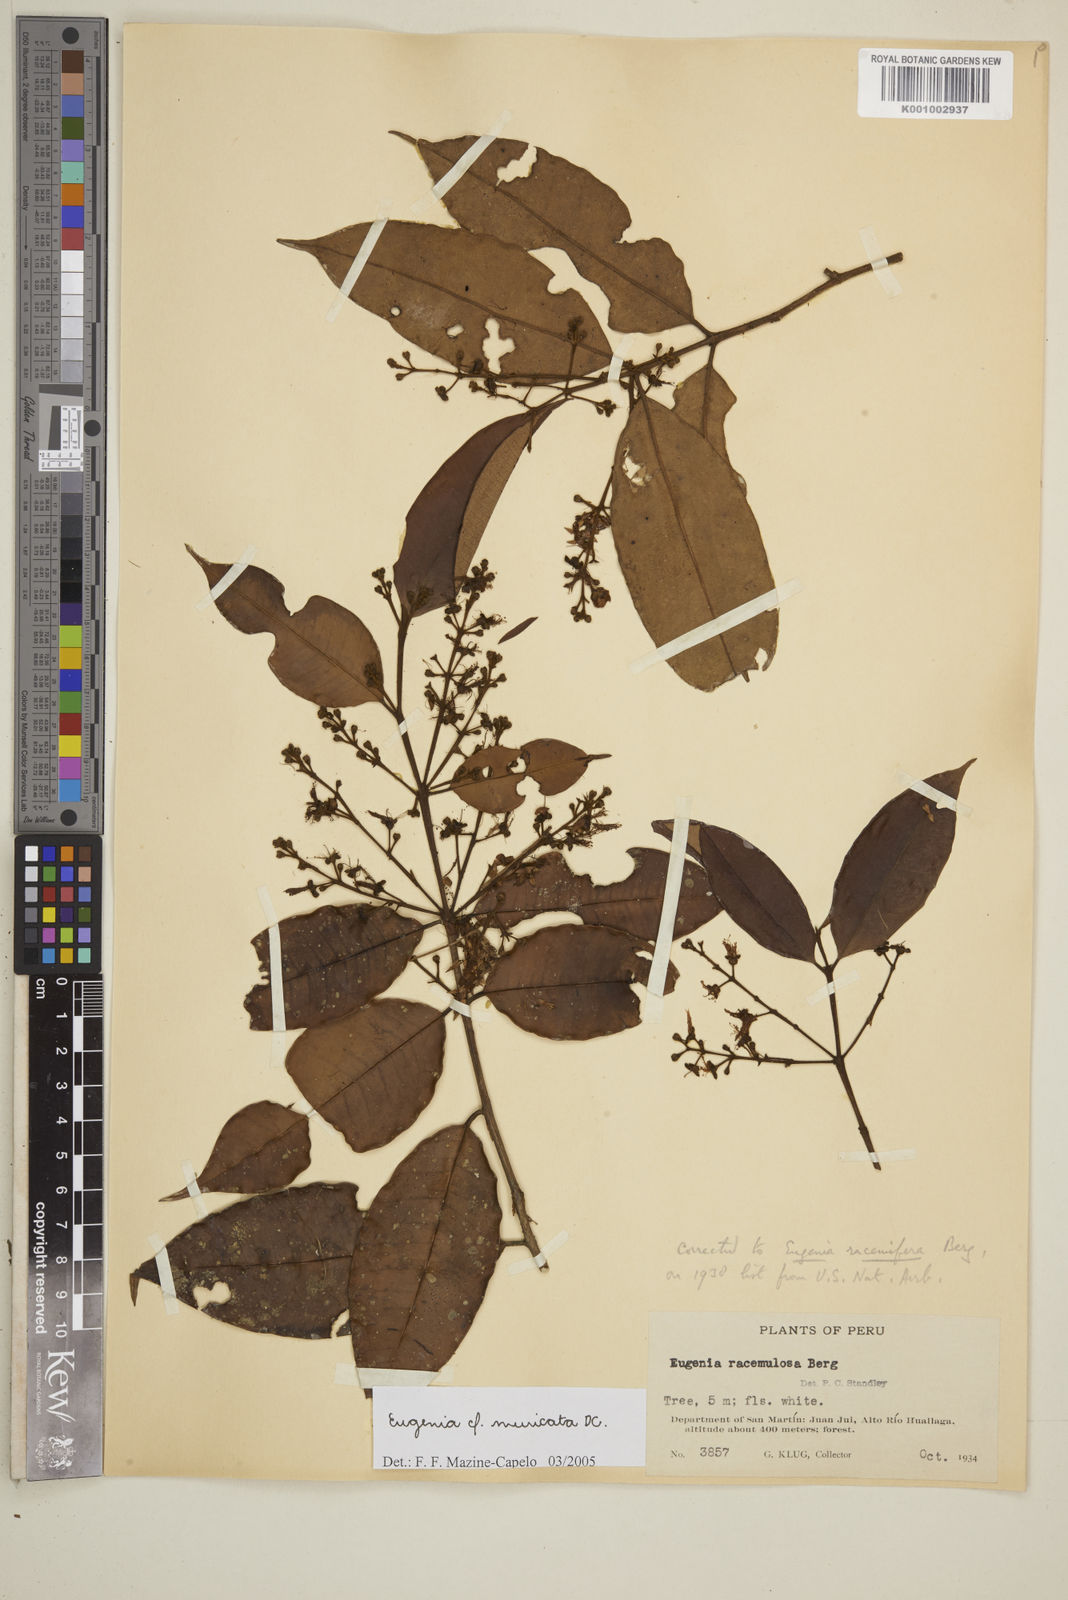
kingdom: Plantae
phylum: Tracheophyta
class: Magnoliopsida
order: Myrtales
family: Myrtaceae
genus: Eugenia
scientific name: Eugenia muricata
